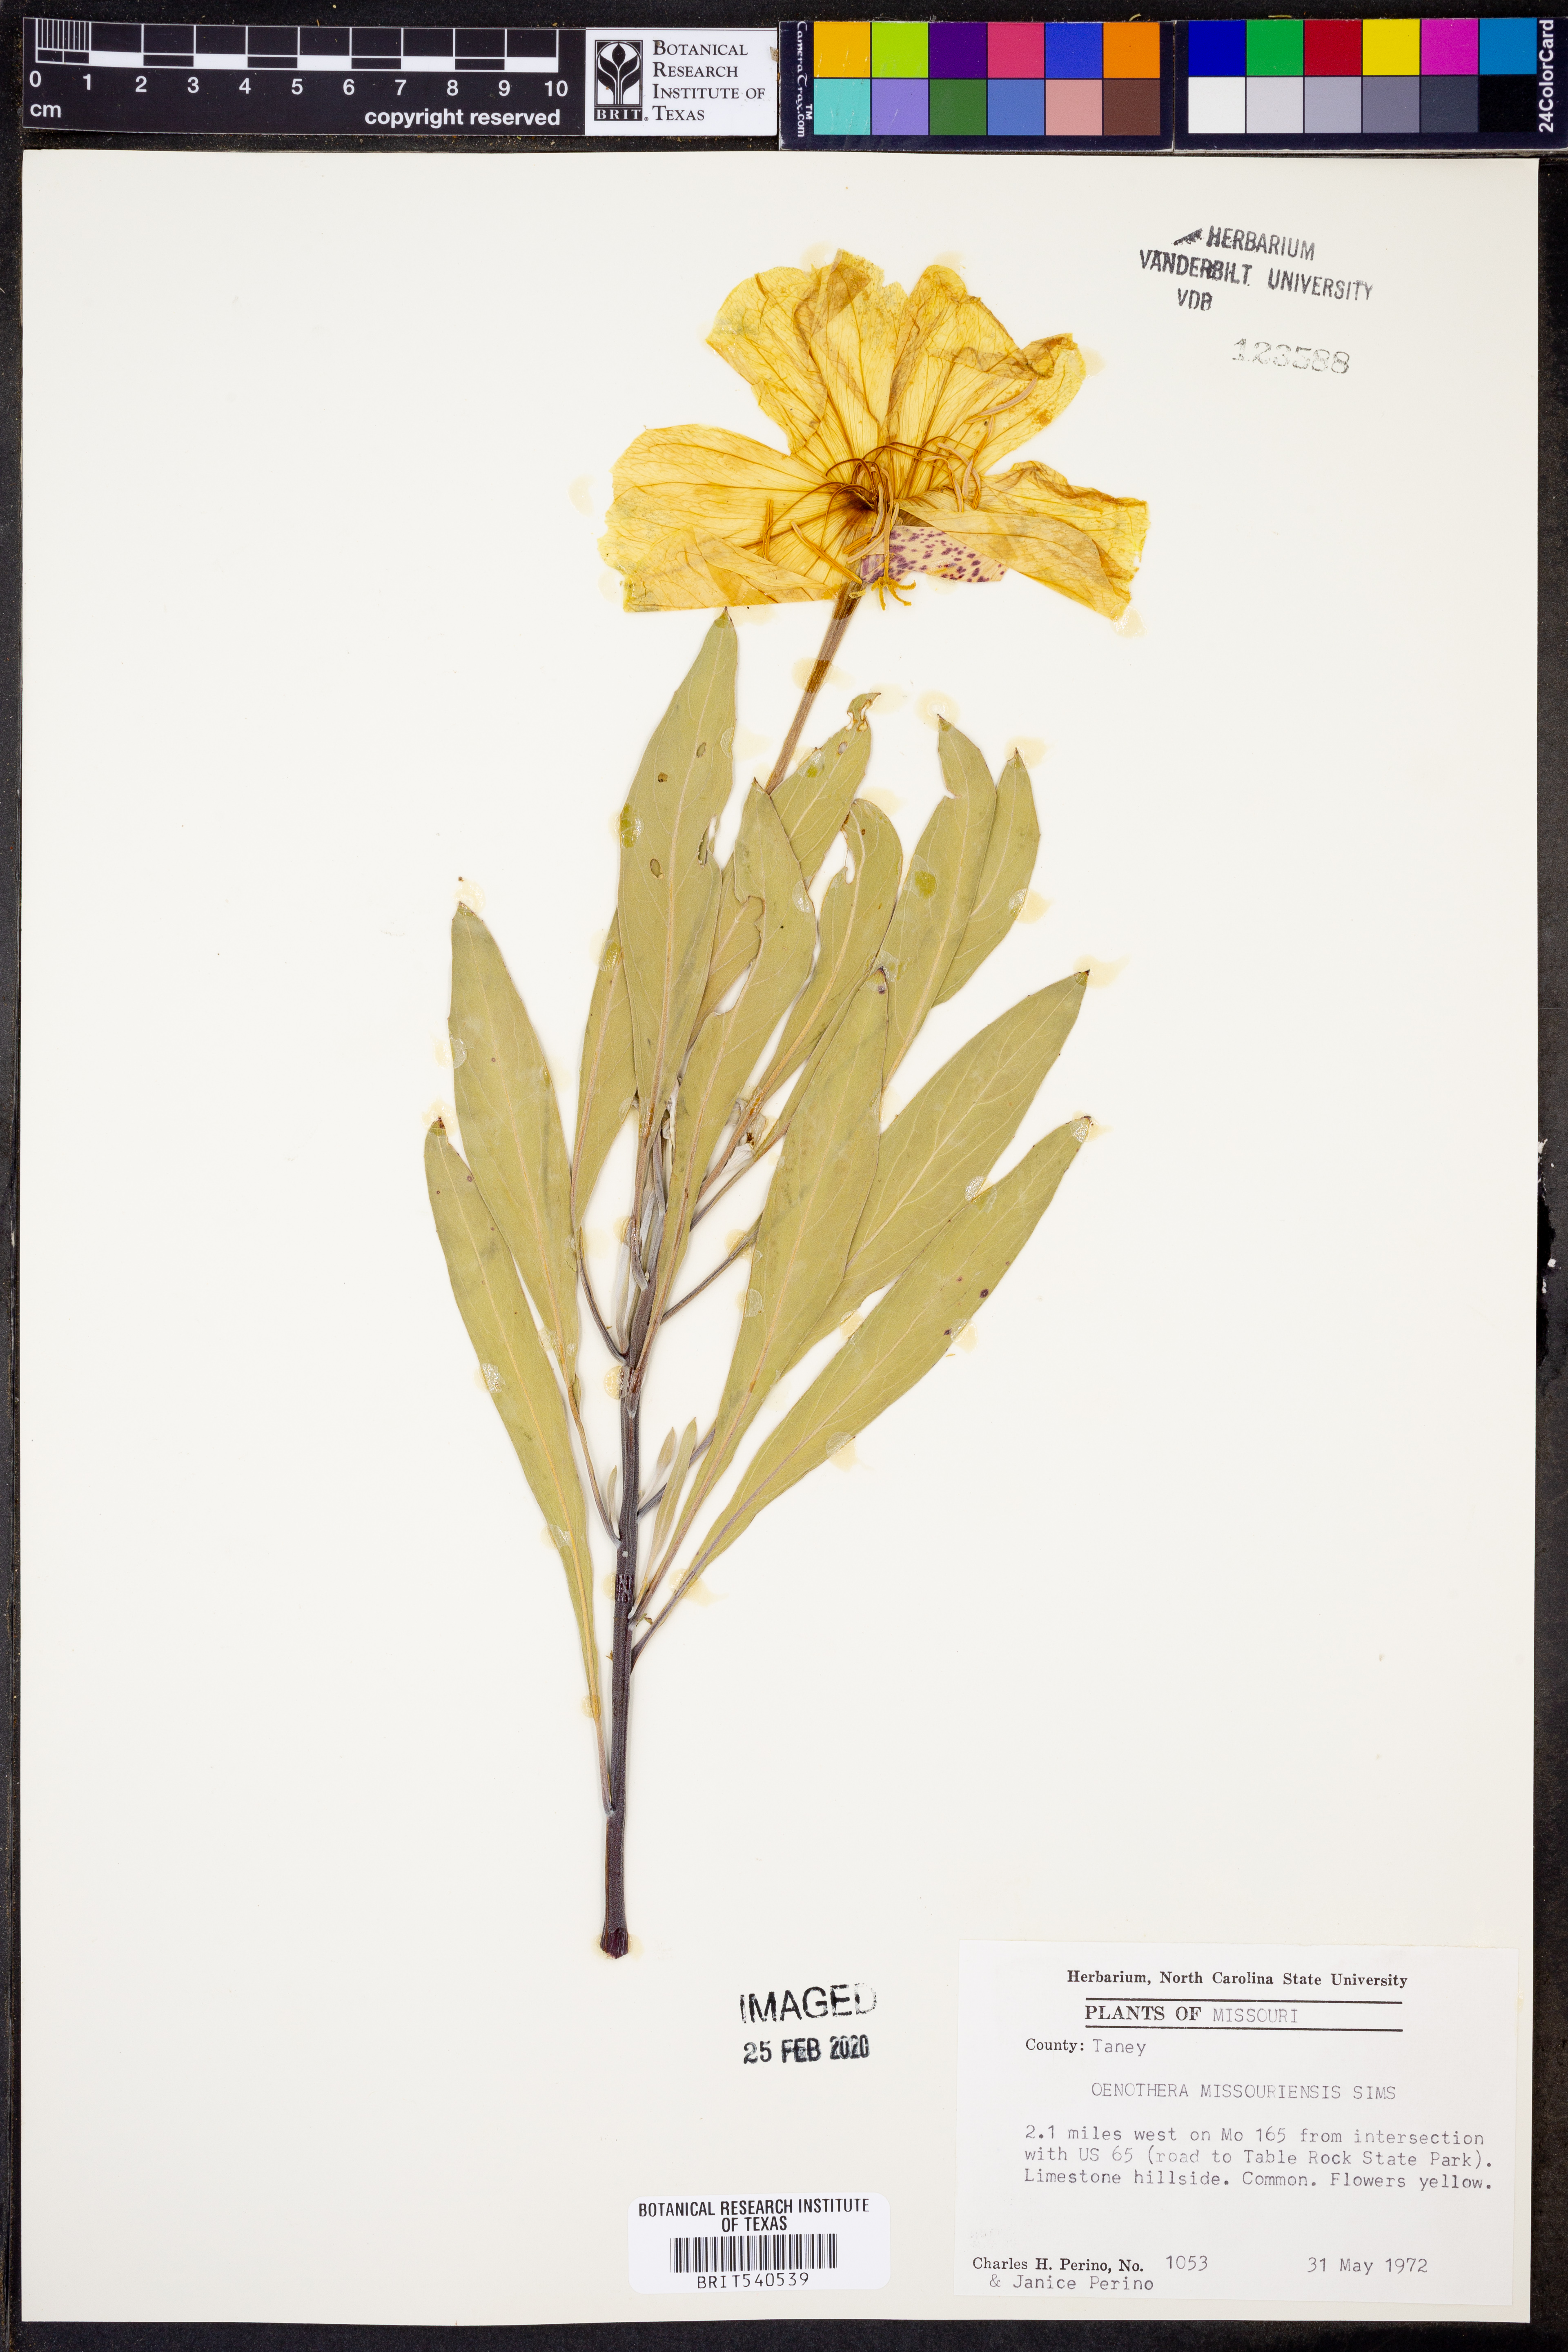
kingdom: Plantae
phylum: Tracheophyta
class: Magnoliopsida
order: Myrtales
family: Onagraceae
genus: Oenothera
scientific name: Oenothera macrocarpa
